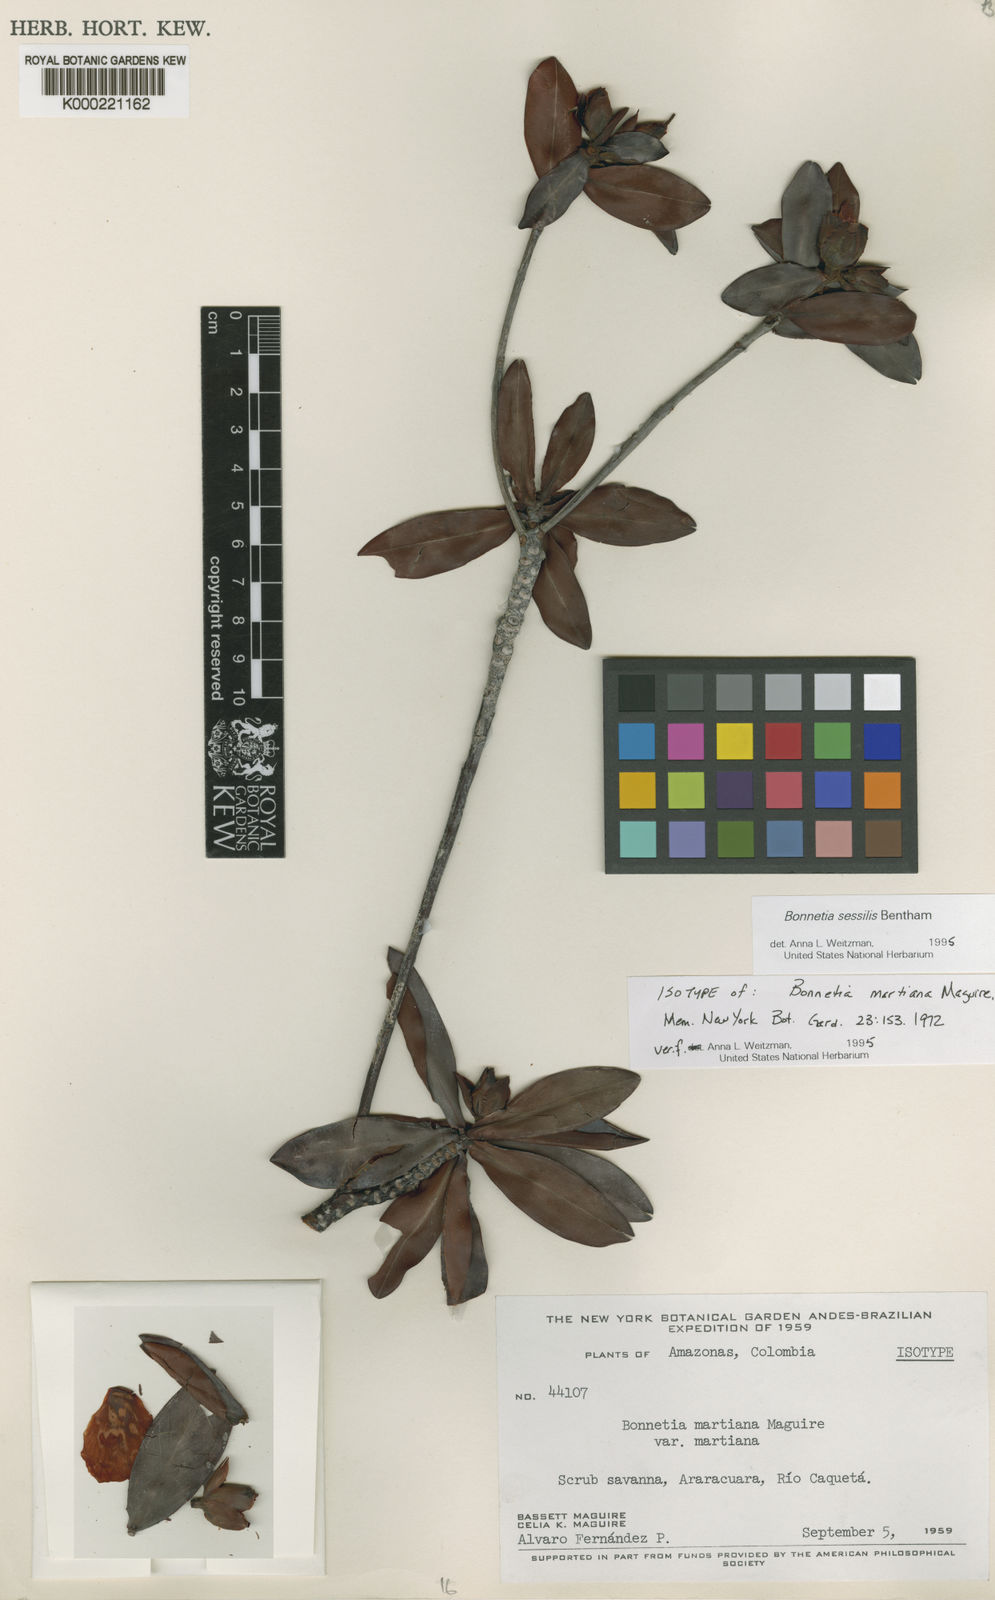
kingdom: Plantae
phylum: Tracheophyta
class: Magnoliopsida
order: Malpighiales
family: Bonnetiaceae
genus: Bonnetia
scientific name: Bonnetia sessilis
